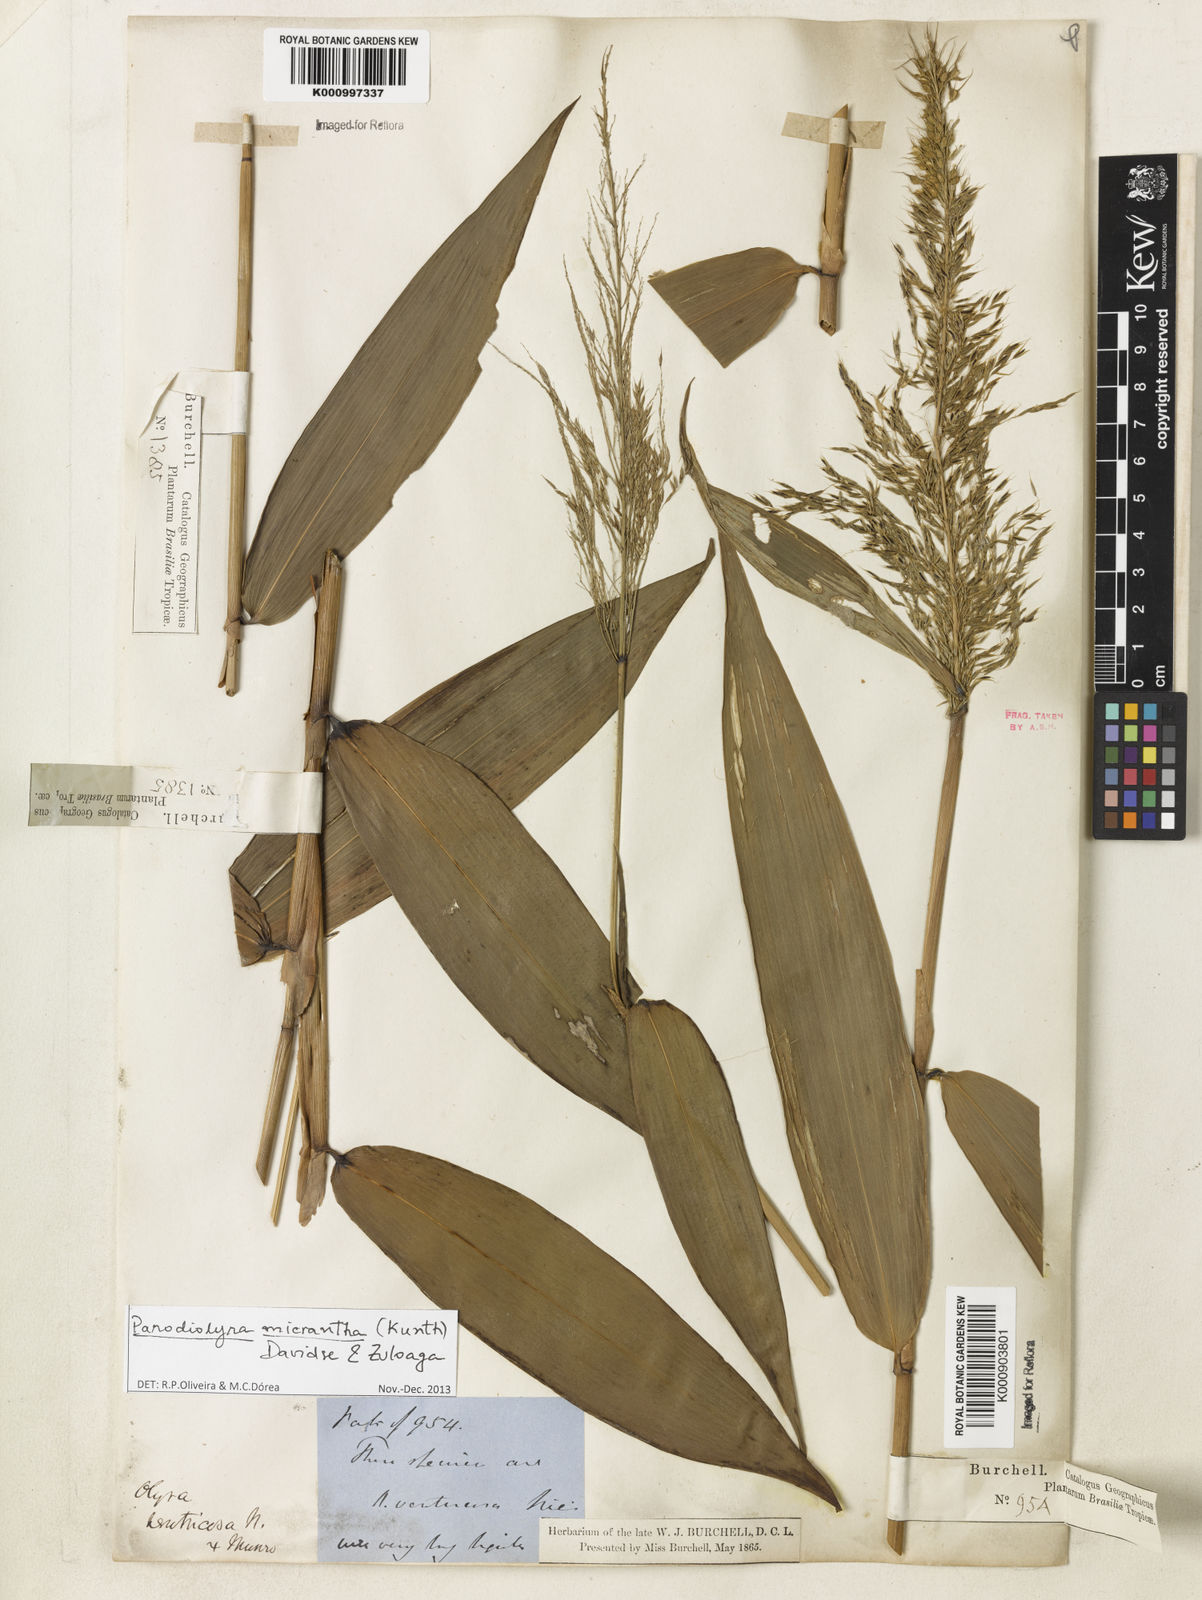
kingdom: Plantae
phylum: Tracheophyta
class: Liliopsida
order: Poales
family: Poaceae
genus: Taquara
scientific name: Taquara micrantha
